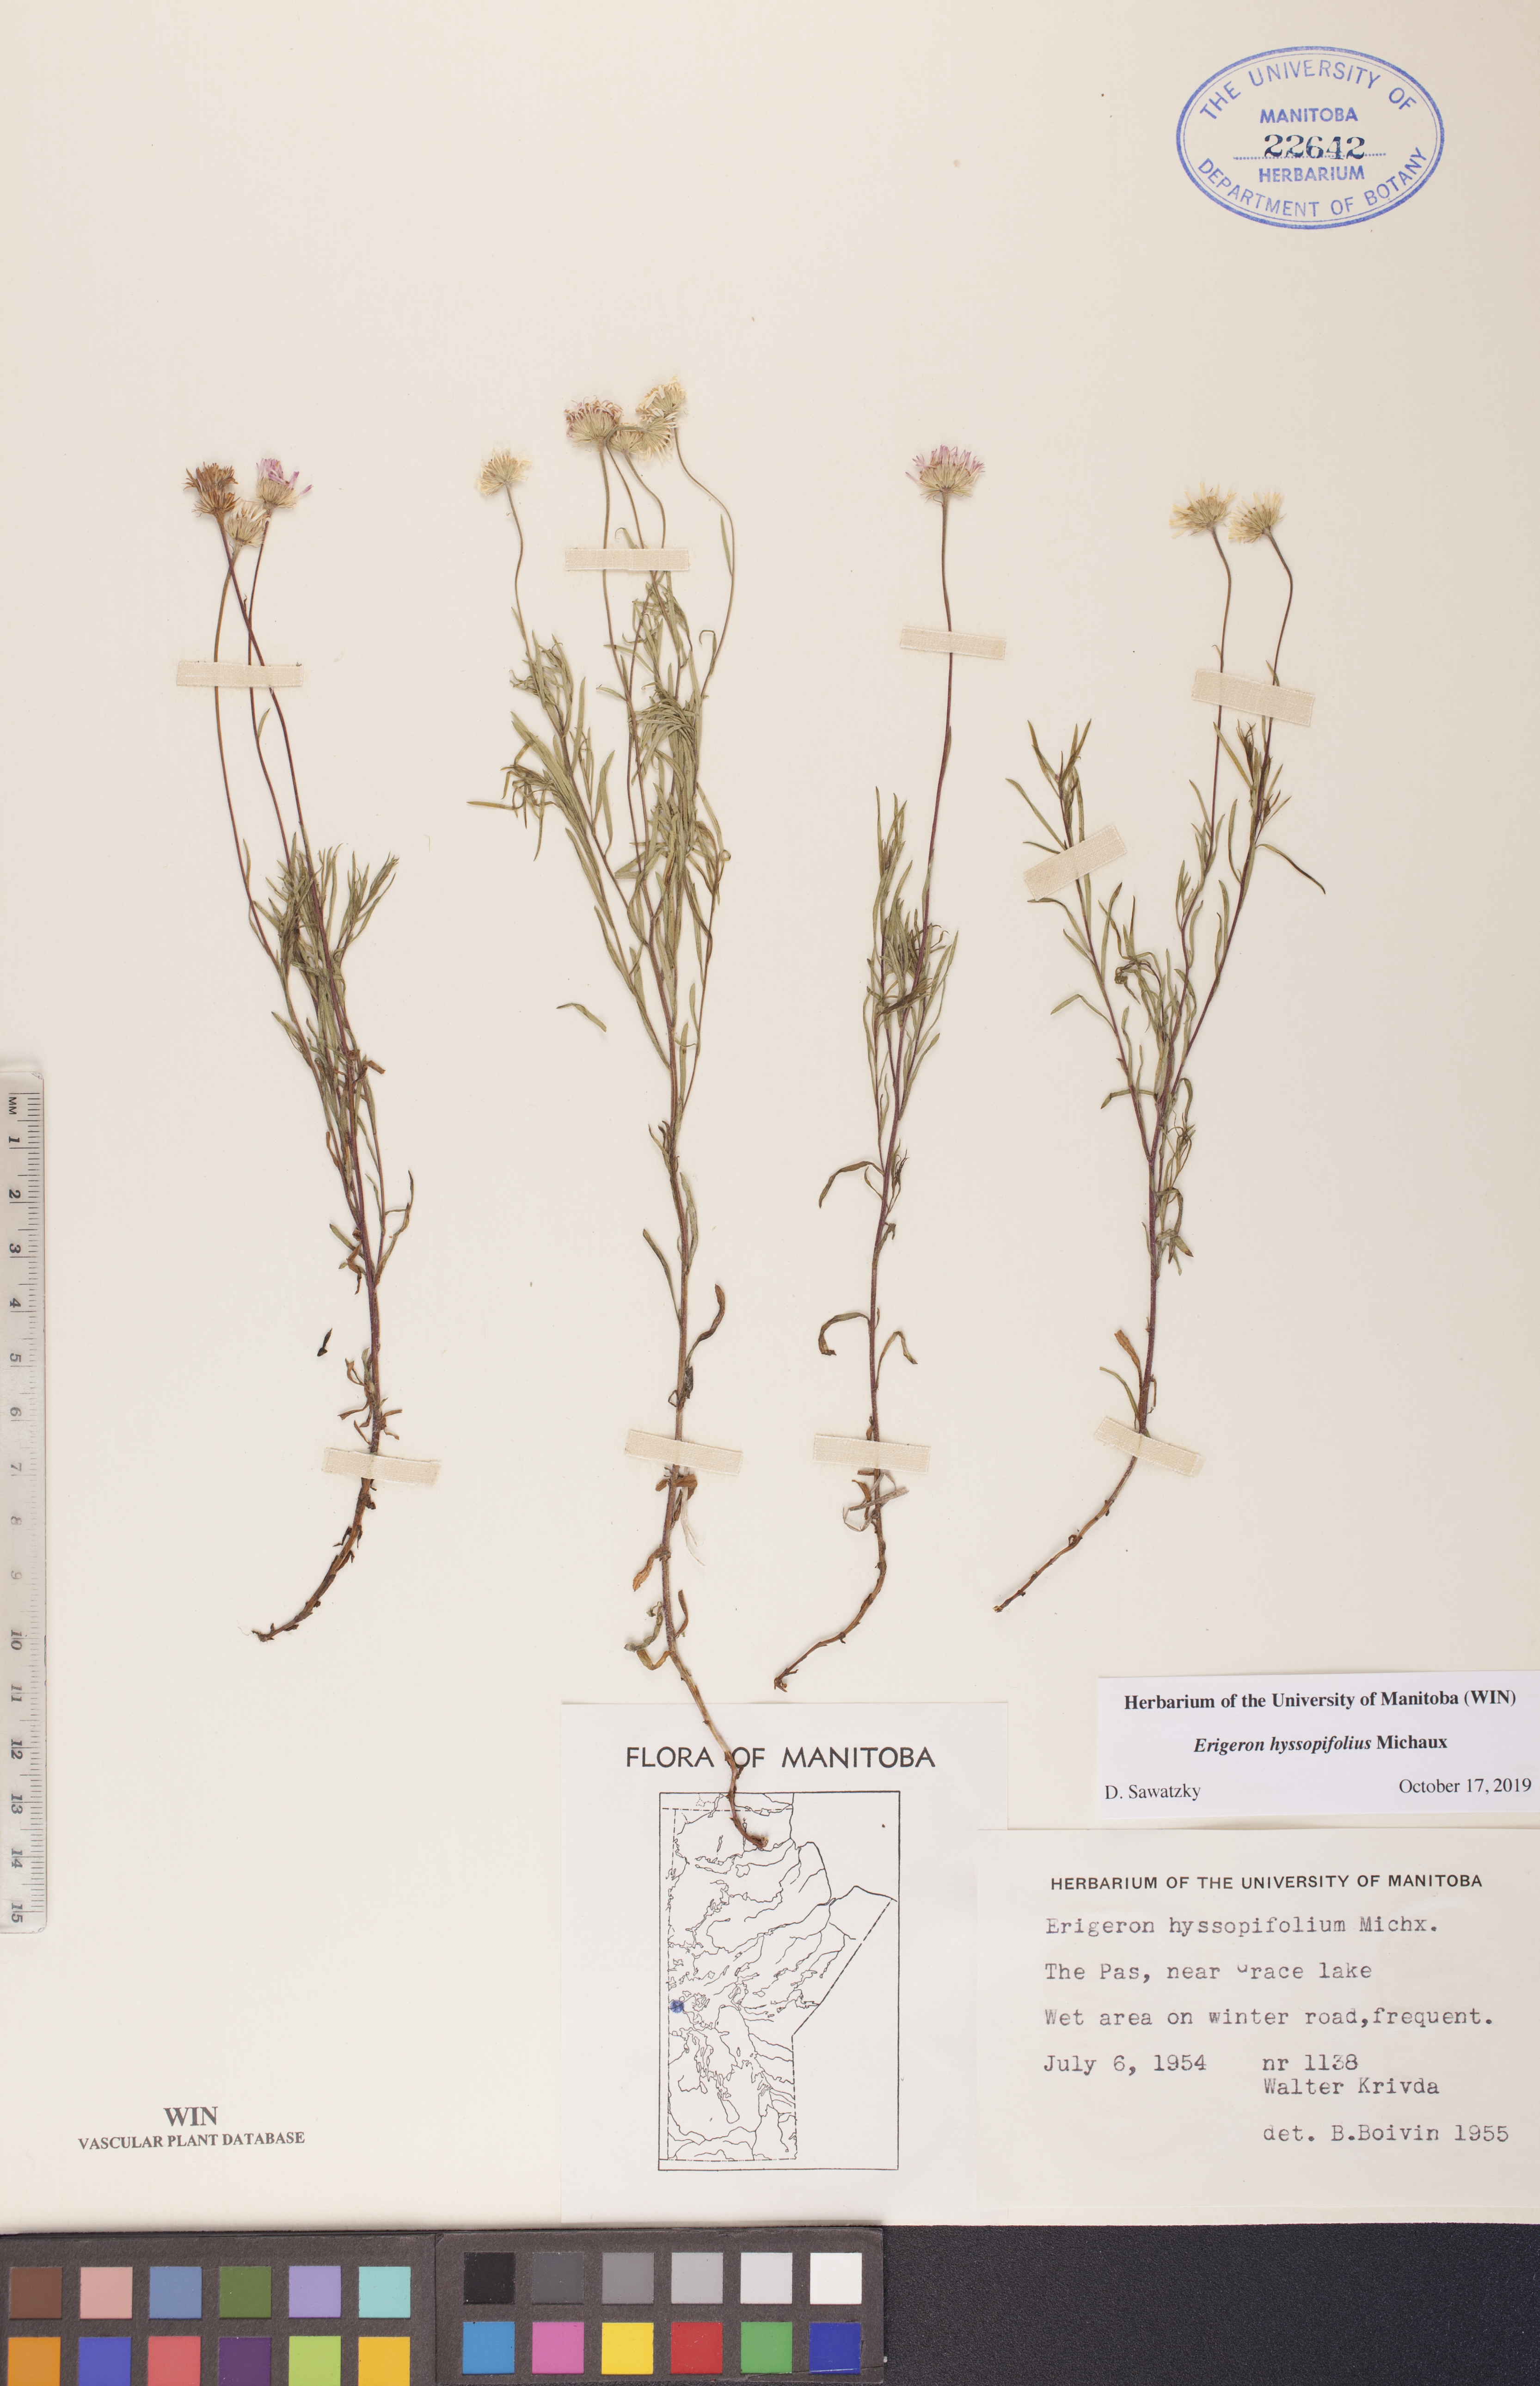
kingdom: Plantae
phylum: Tracheophyta
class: Magnoliopsida
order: Asterales
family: Asteraceae
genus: Erigeron
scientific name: Erigeron hyssopifolius
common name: Daisy fleabane
